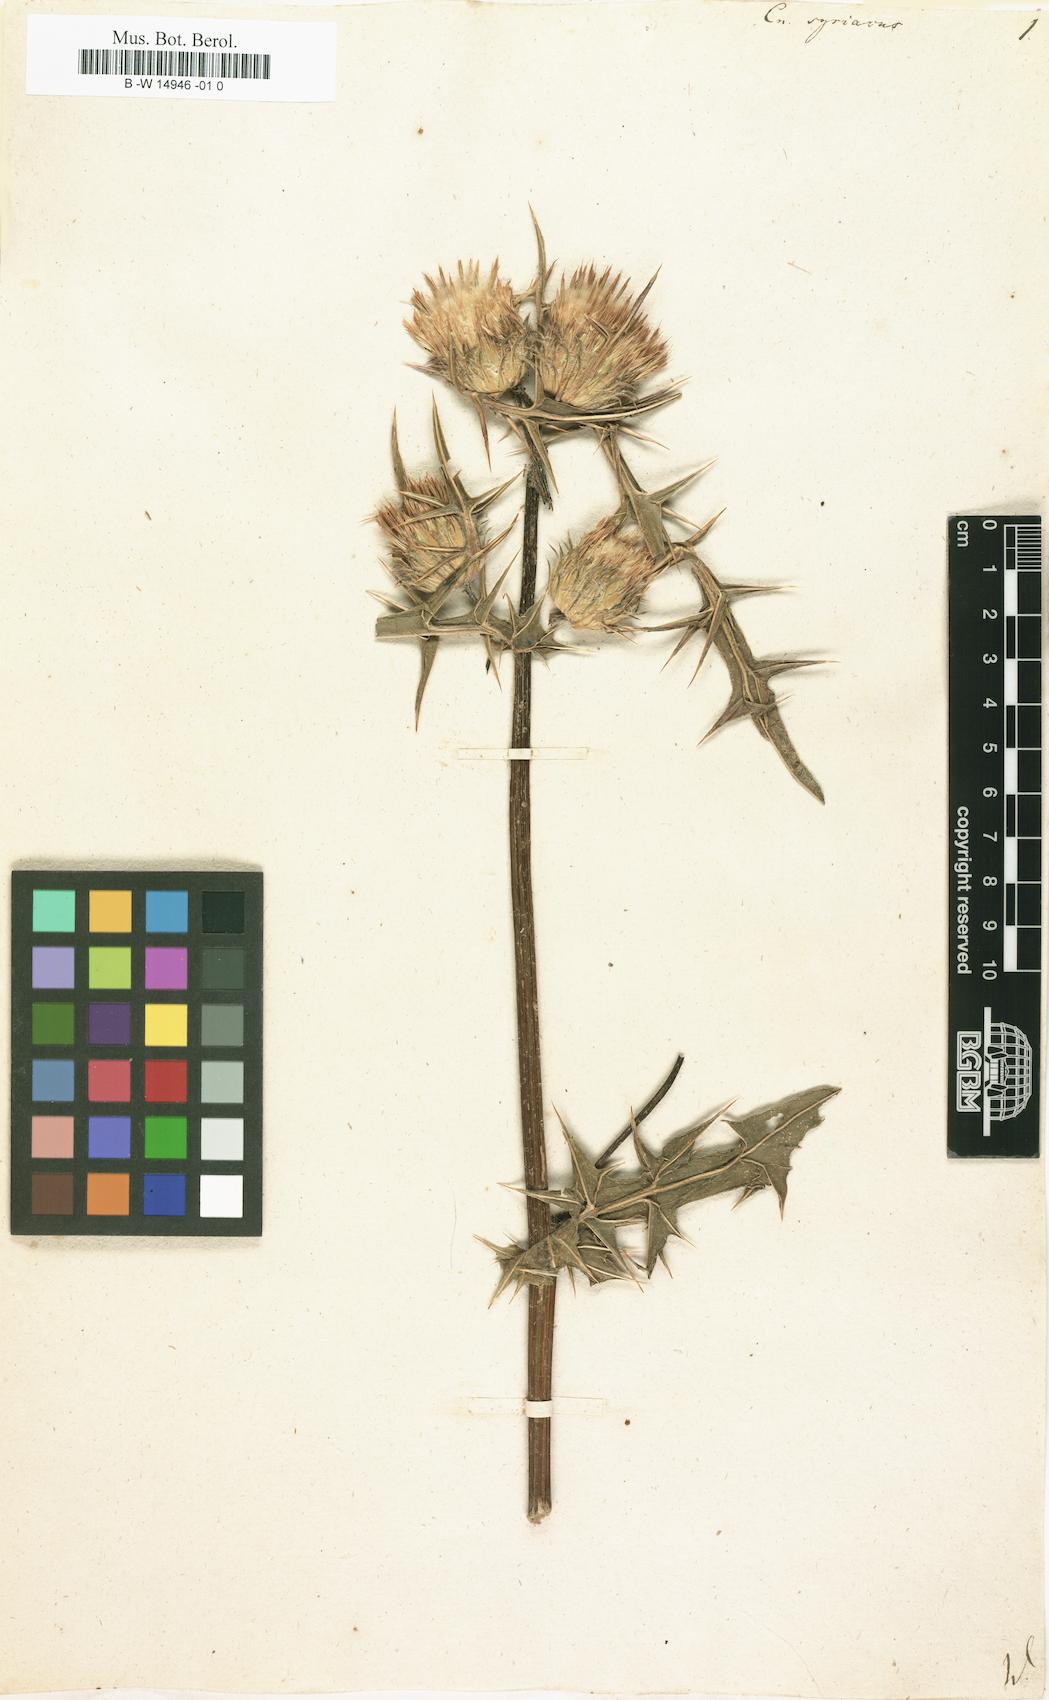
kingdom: Plantae
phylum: Tracheophyta
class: Magnoliopsida
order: Asterales
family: Asteraceae
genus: Notobasis
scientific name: Notobasis syriaca
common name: Syrian thistle
